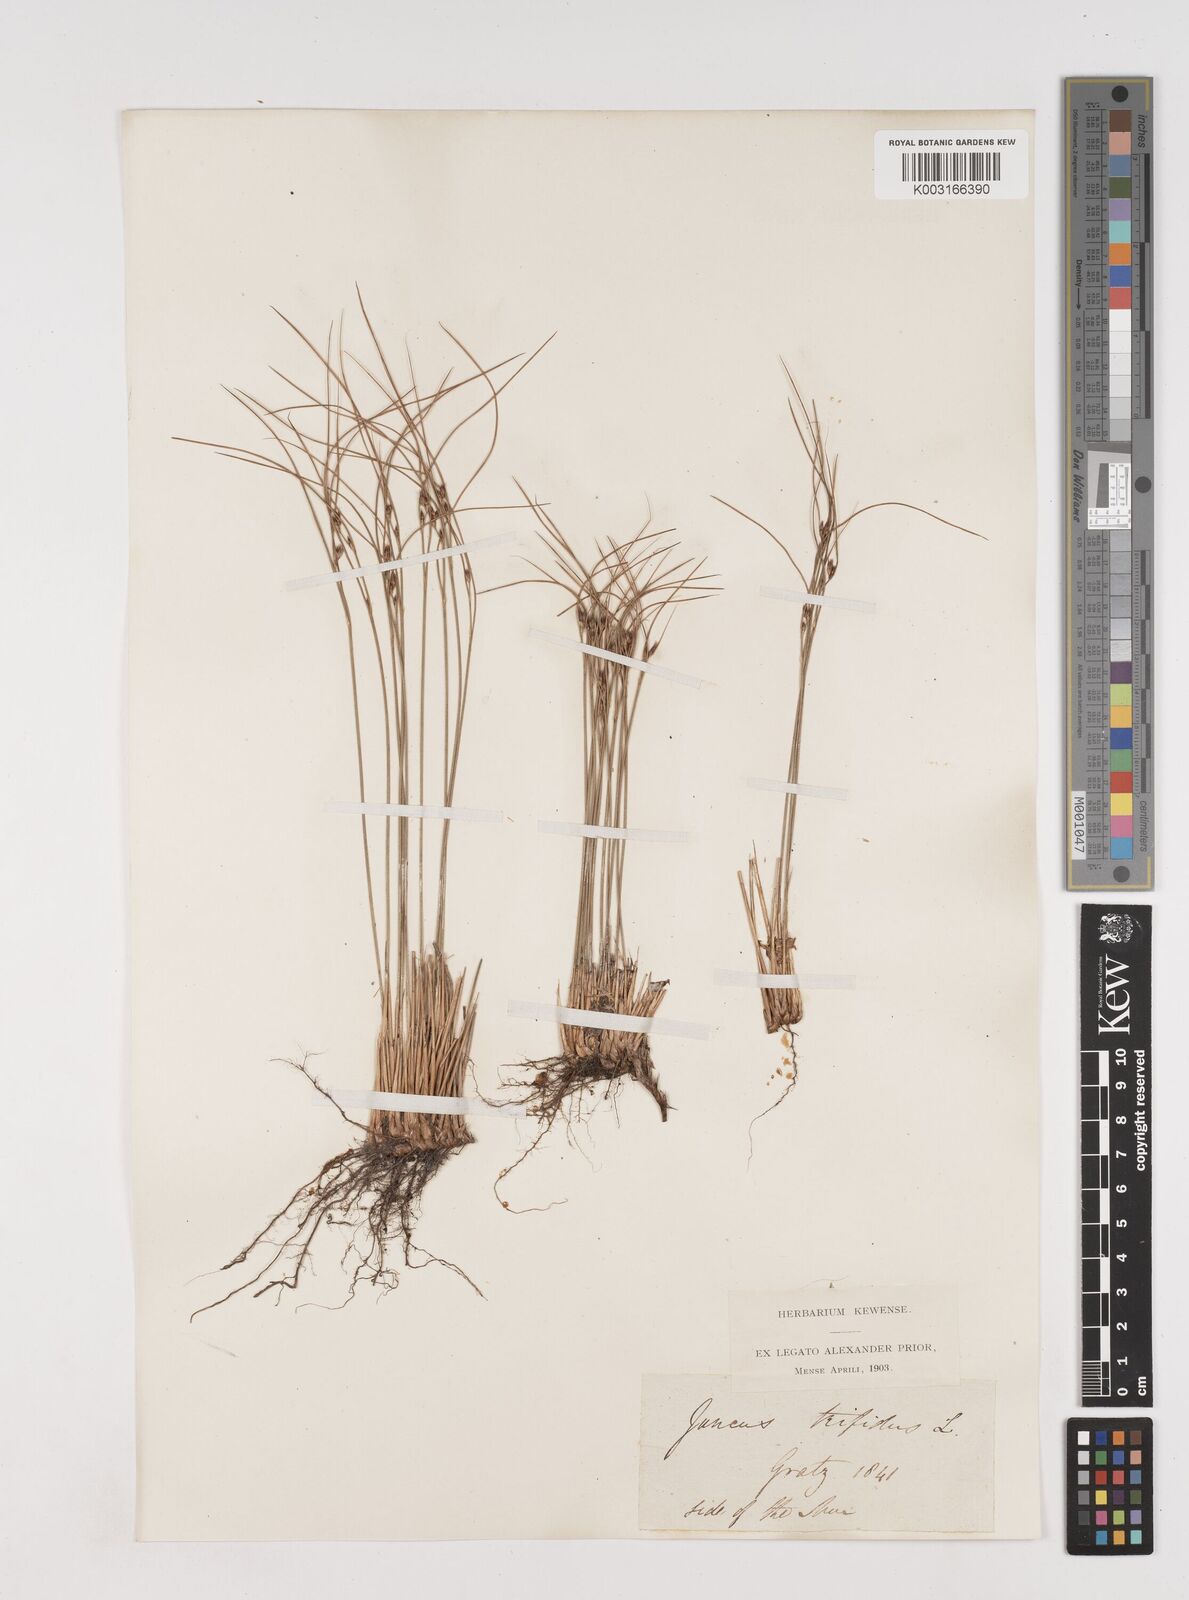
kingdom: Plantae
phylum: Tracheophyta
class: Liliopsida
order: Poales
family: Juncaceae
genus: Oreojuncus
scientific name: Oreojuncus trifidus
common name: Highland rush
